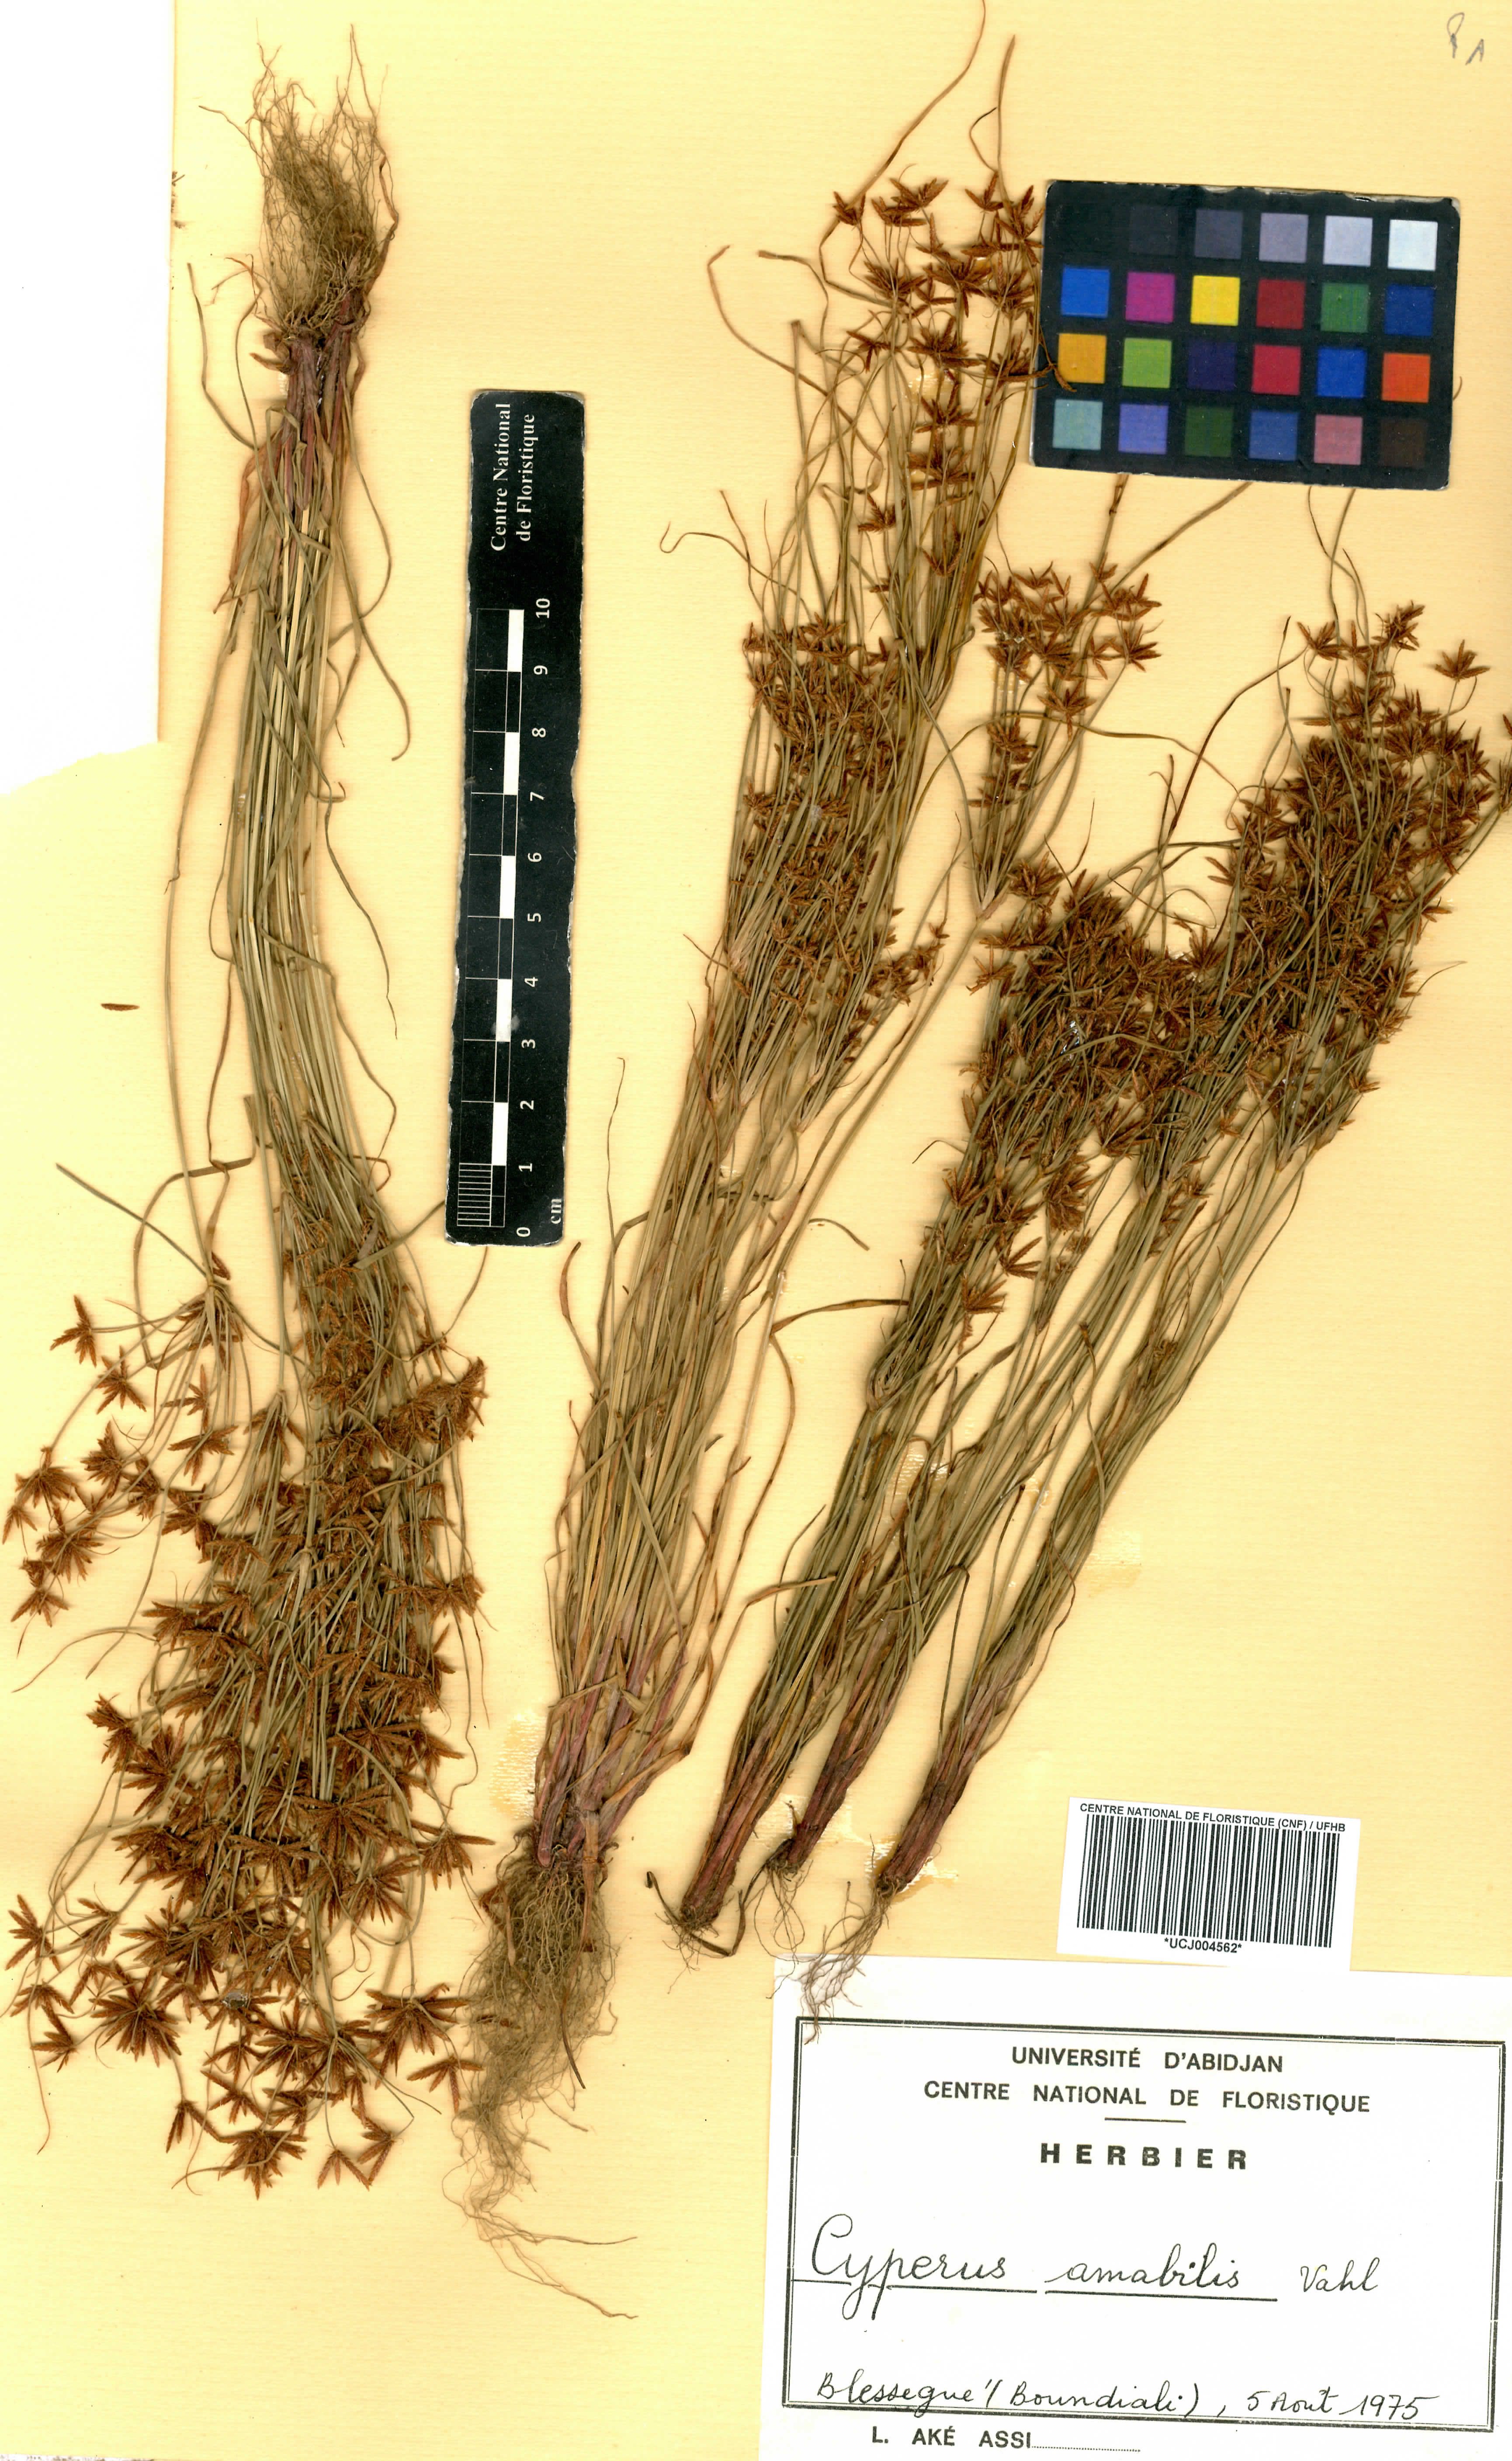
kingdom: Plantae
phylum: Tracheophyta
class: Liliopsida
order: Poales
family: Cyperaceae
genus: Cyperus
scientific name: Cyperus amabilis
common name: Foothill flat sedge
